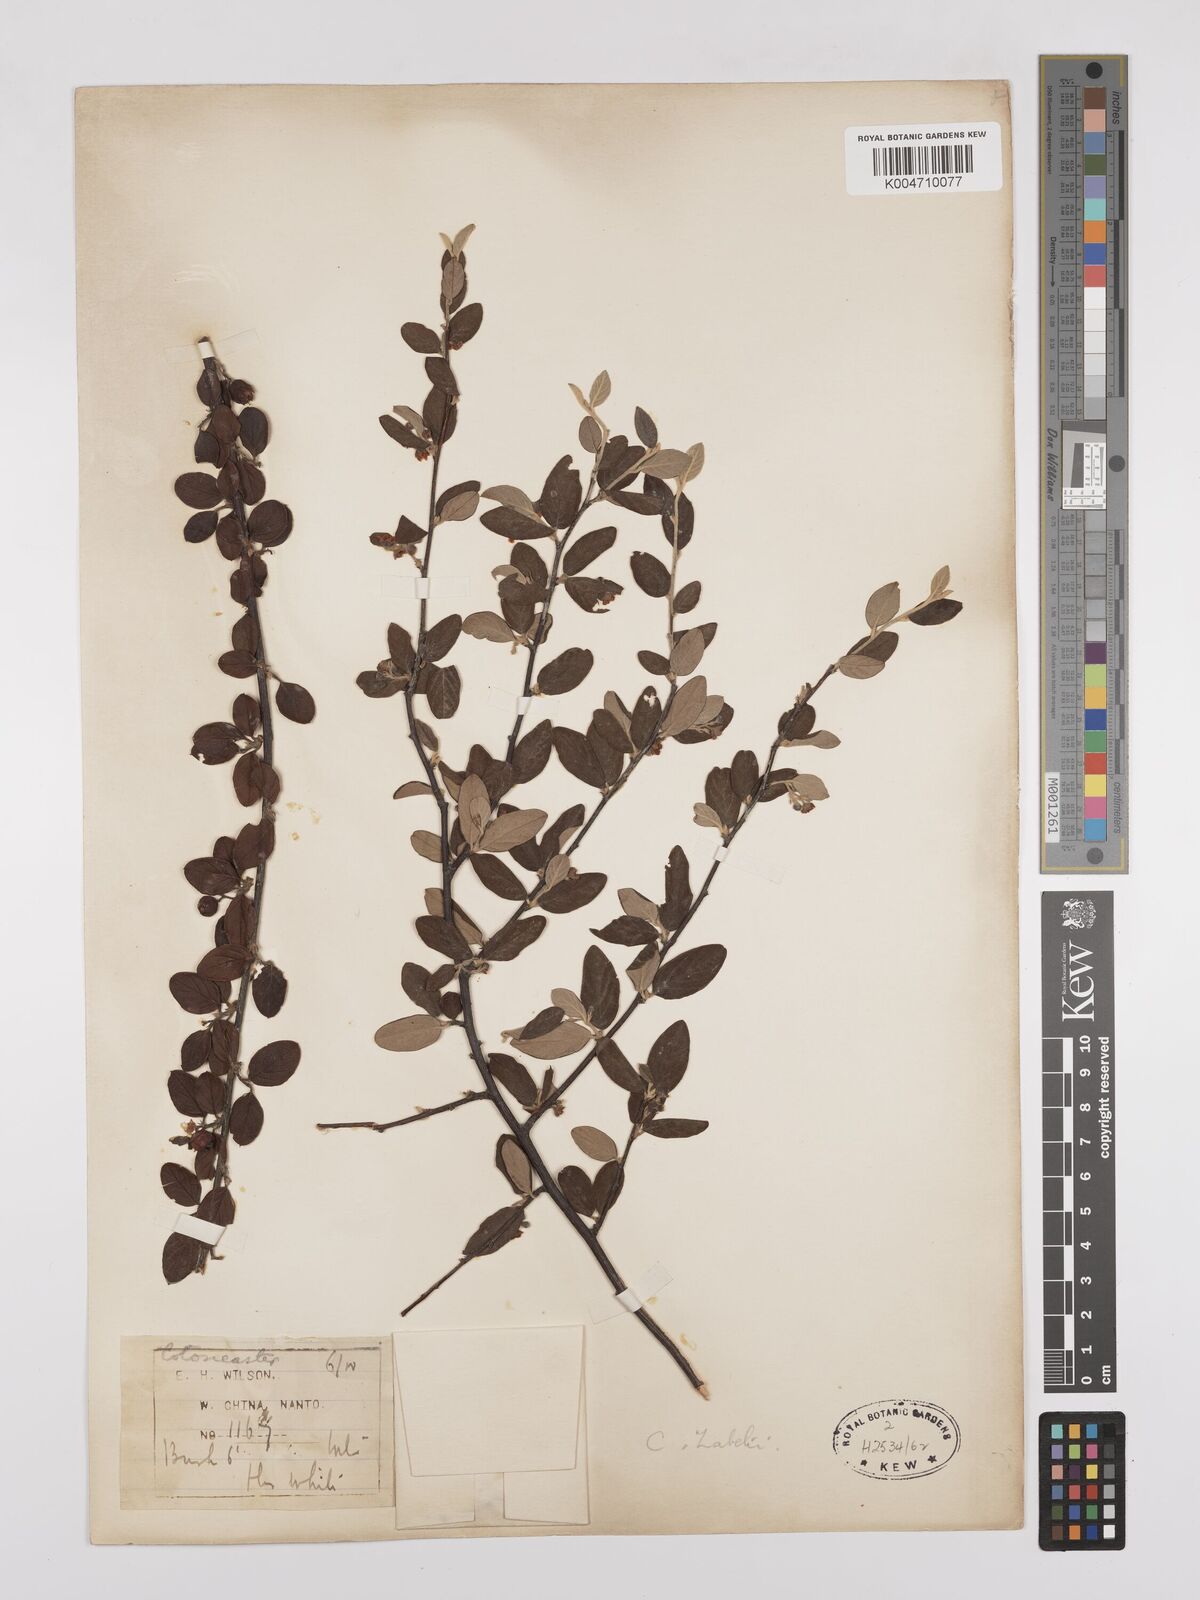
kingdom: Plantae
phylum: Tracheophyta
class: Magnoliopsida
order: Rosales
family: Rosaceae
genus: Cotoneaster
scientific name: Cotoneaster zabelii
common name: Cherryred cotoneaster
